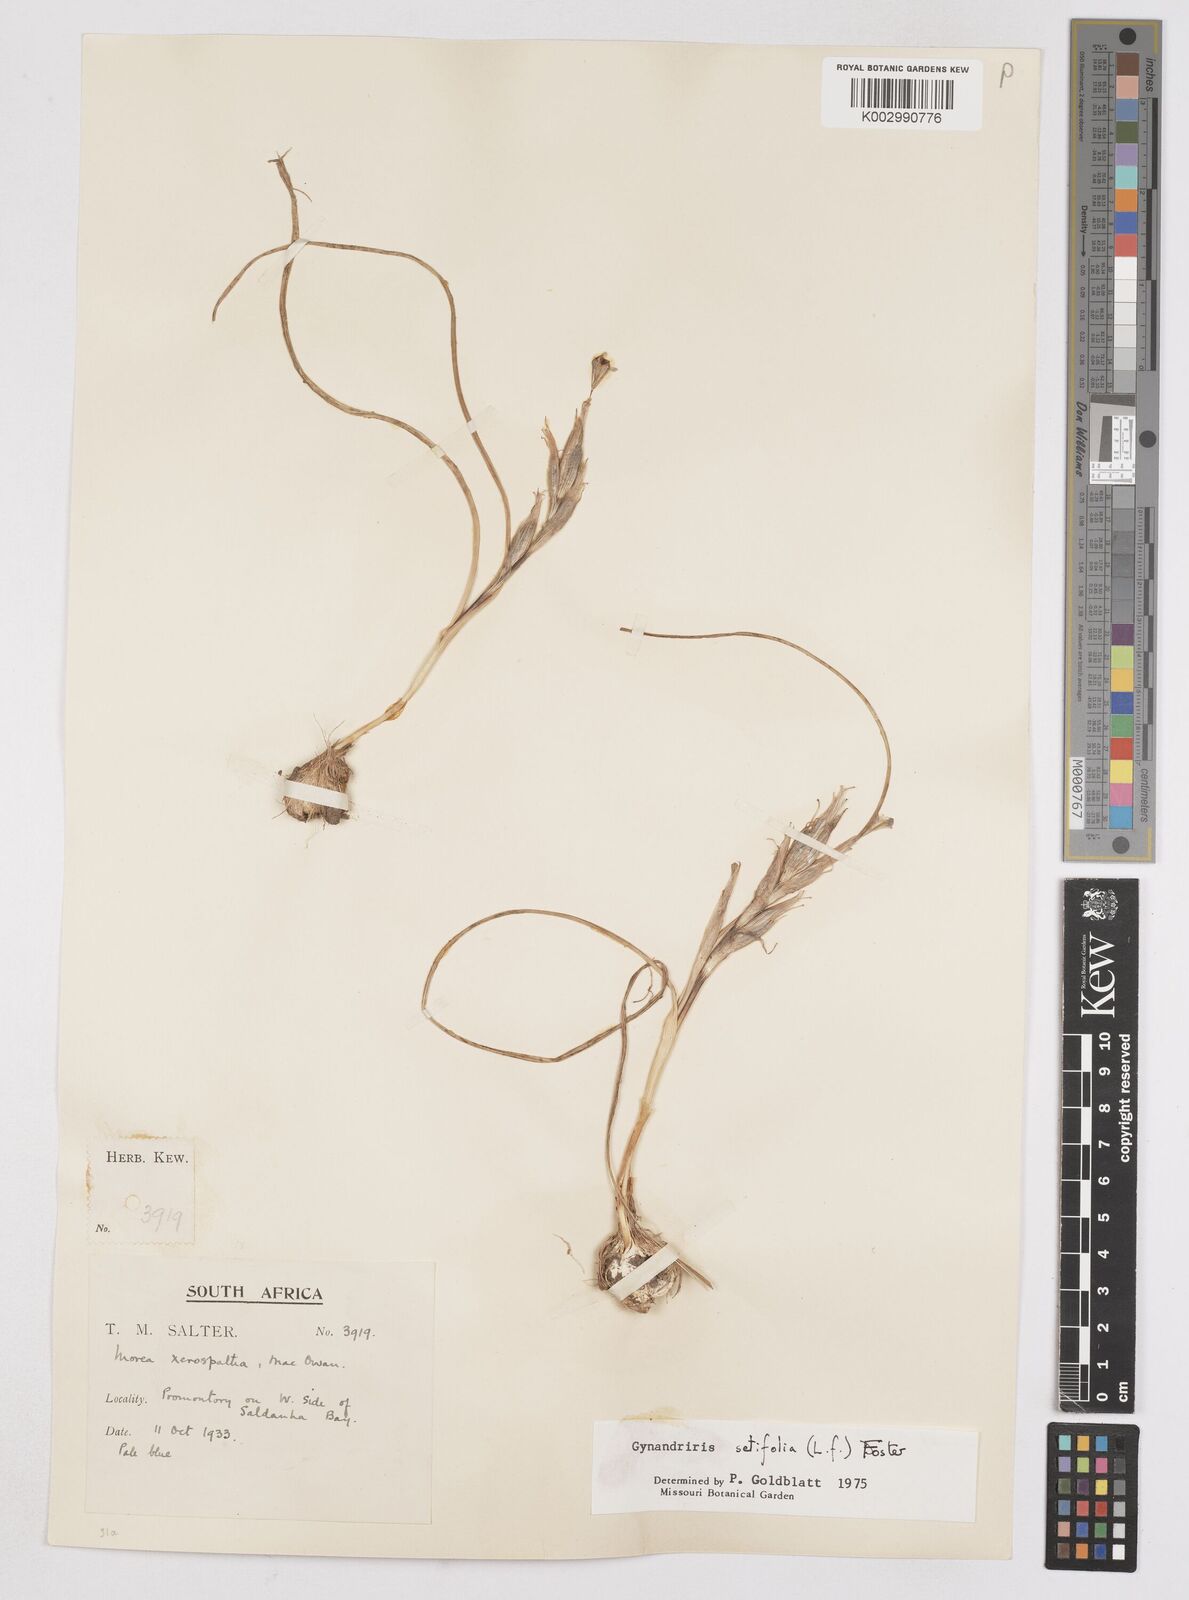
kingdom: Plantae
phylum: Tracheophyta
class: Liliopsida
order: Asparagales
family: Iridaceae
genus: Moraea
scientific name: Moraea setifolia
